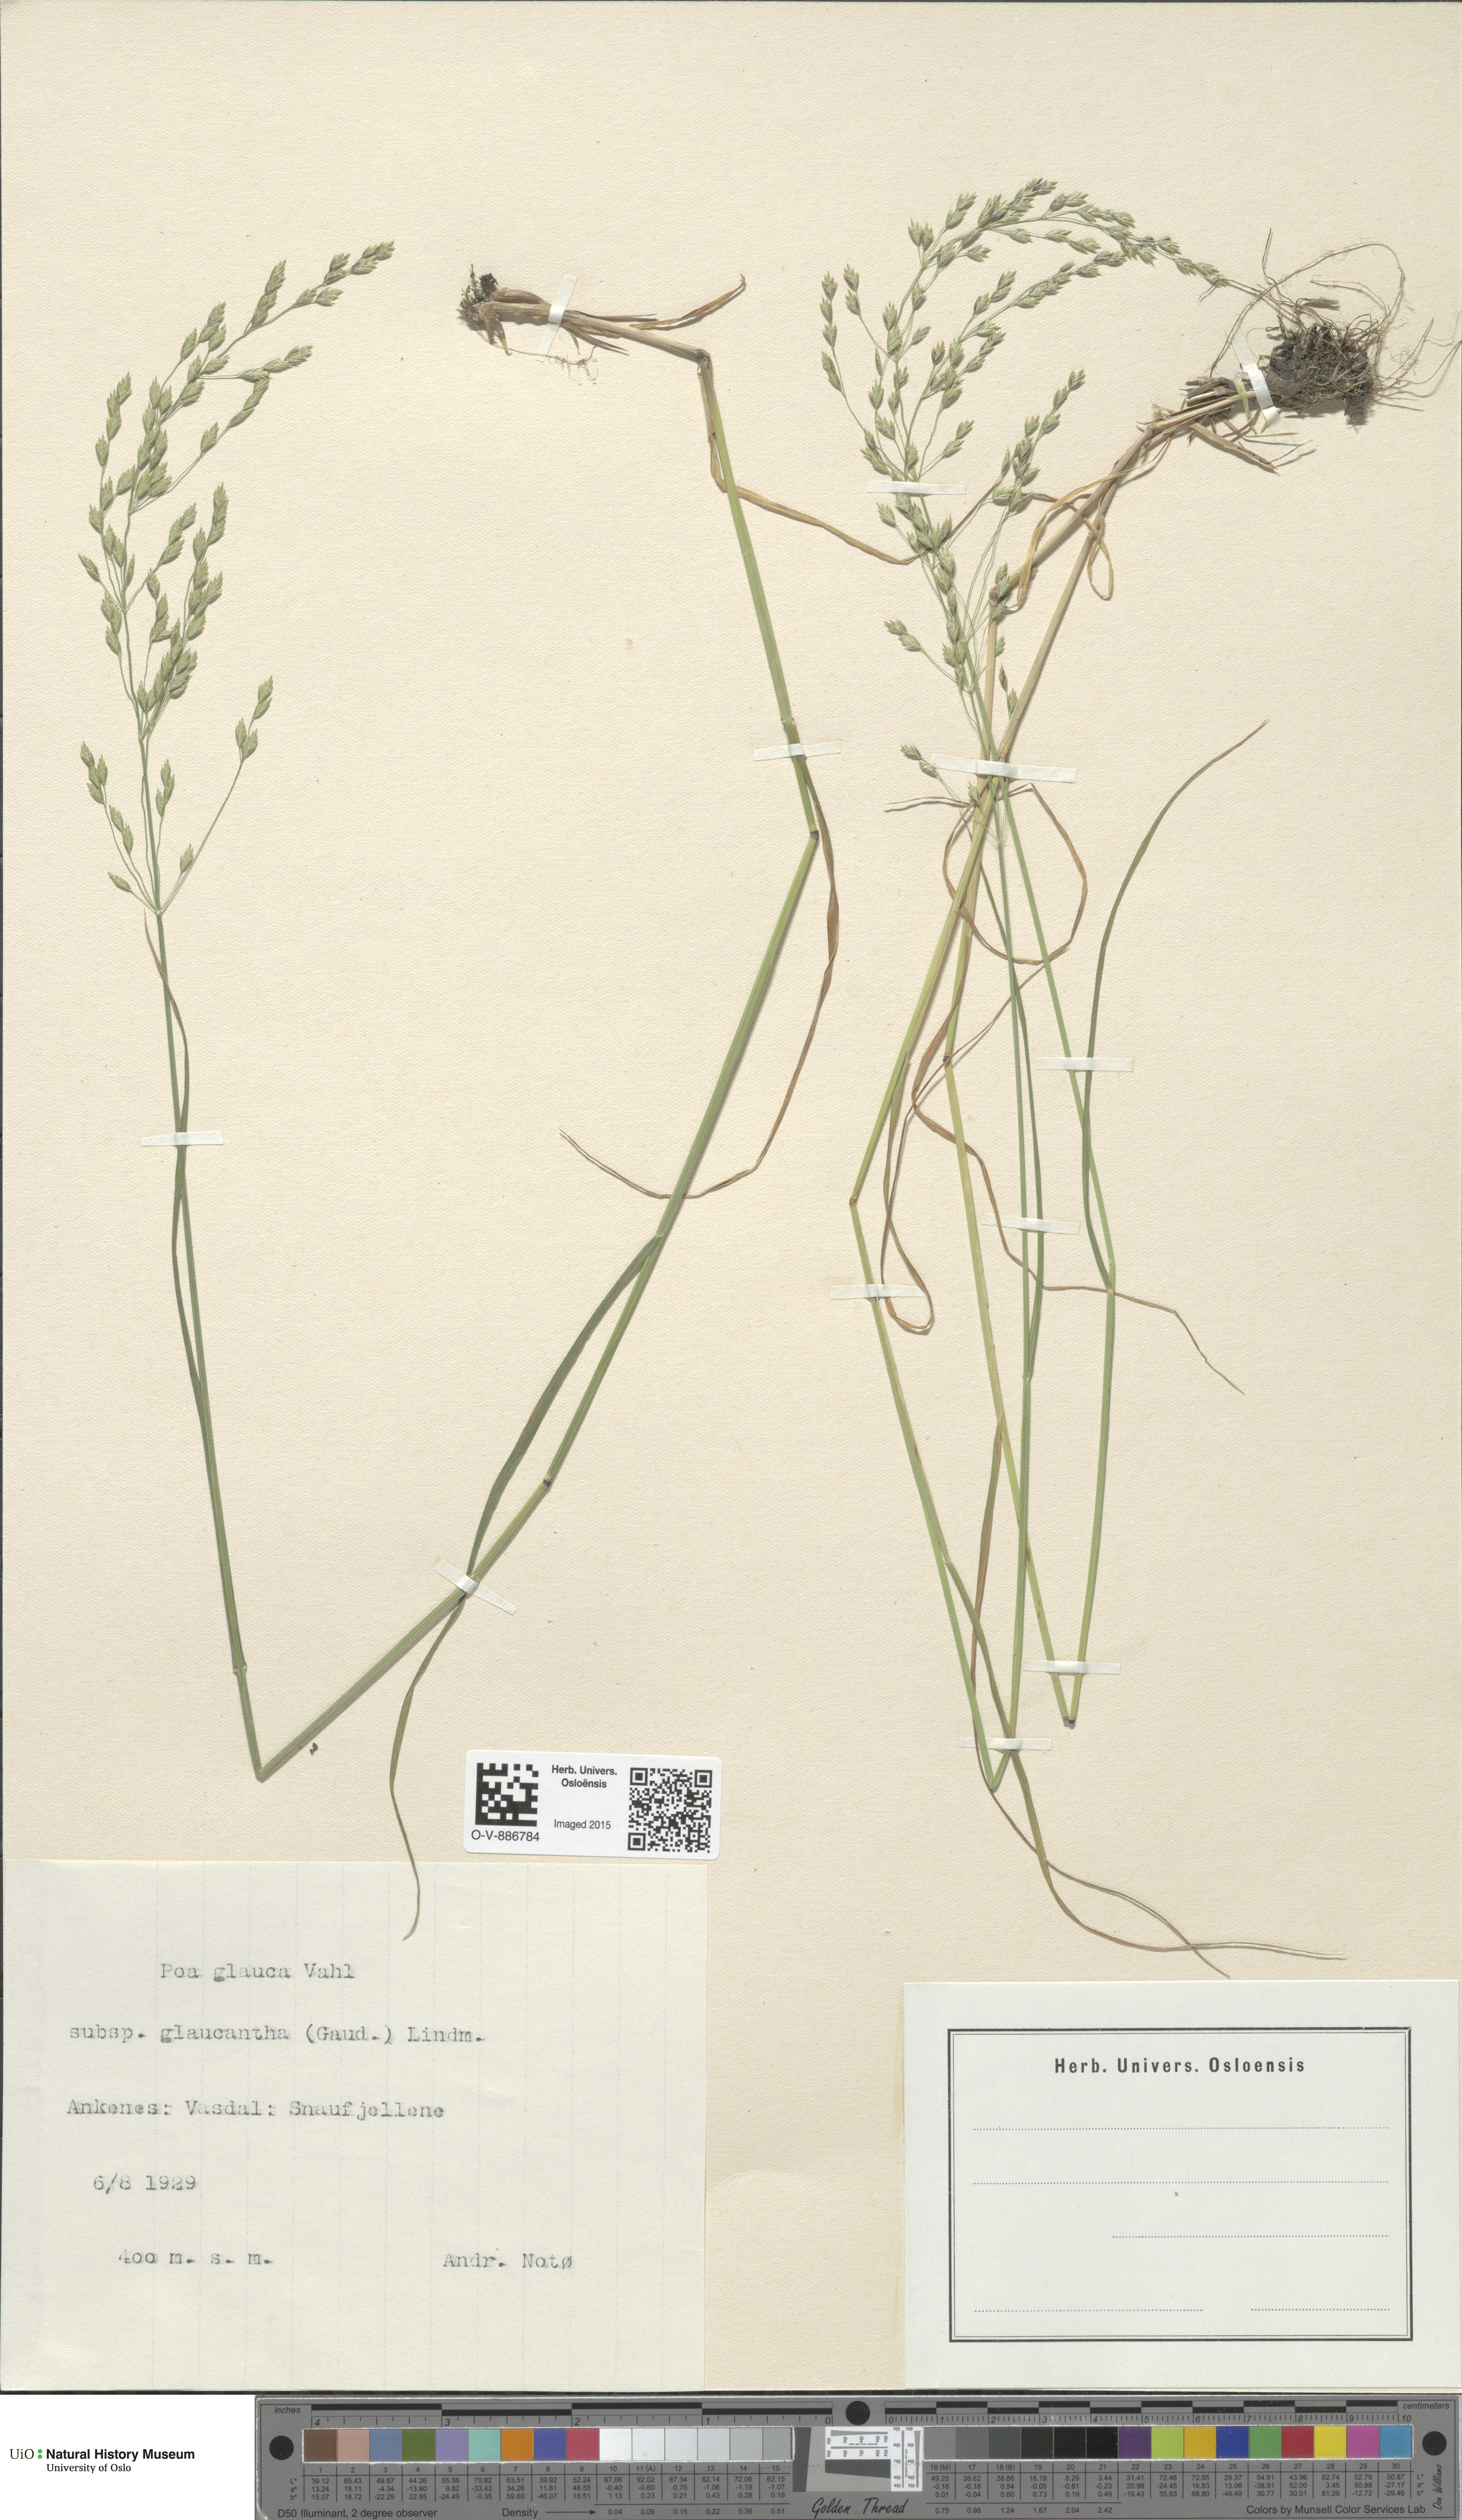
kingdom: Plantae
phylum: Tracheophyta
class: Liliopsida
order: Poales
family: Poaceae
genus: Poa
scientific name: Poa glauca
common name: Glaucous bluegrass
